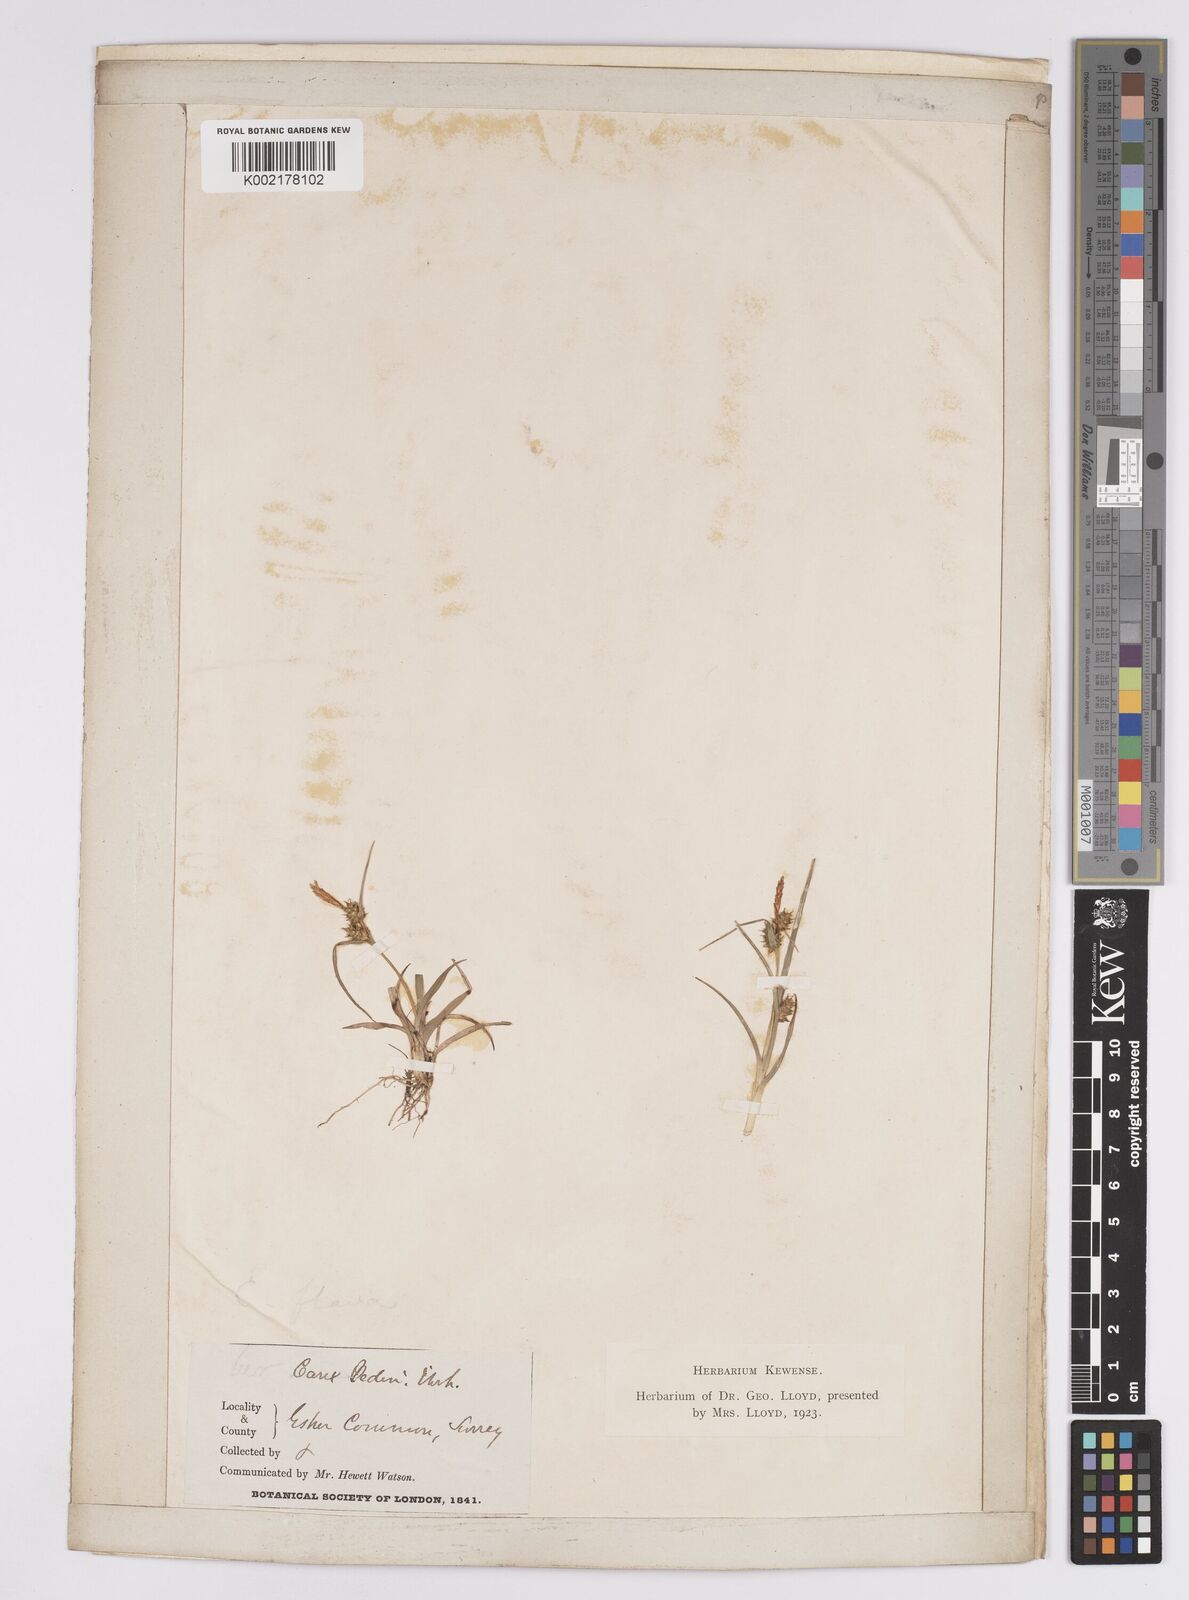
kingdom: Plantae
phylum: Tracheophyta
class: Liliopsida
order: Poales
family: Cyperaceae
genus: Carex
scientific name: Carex demissa
